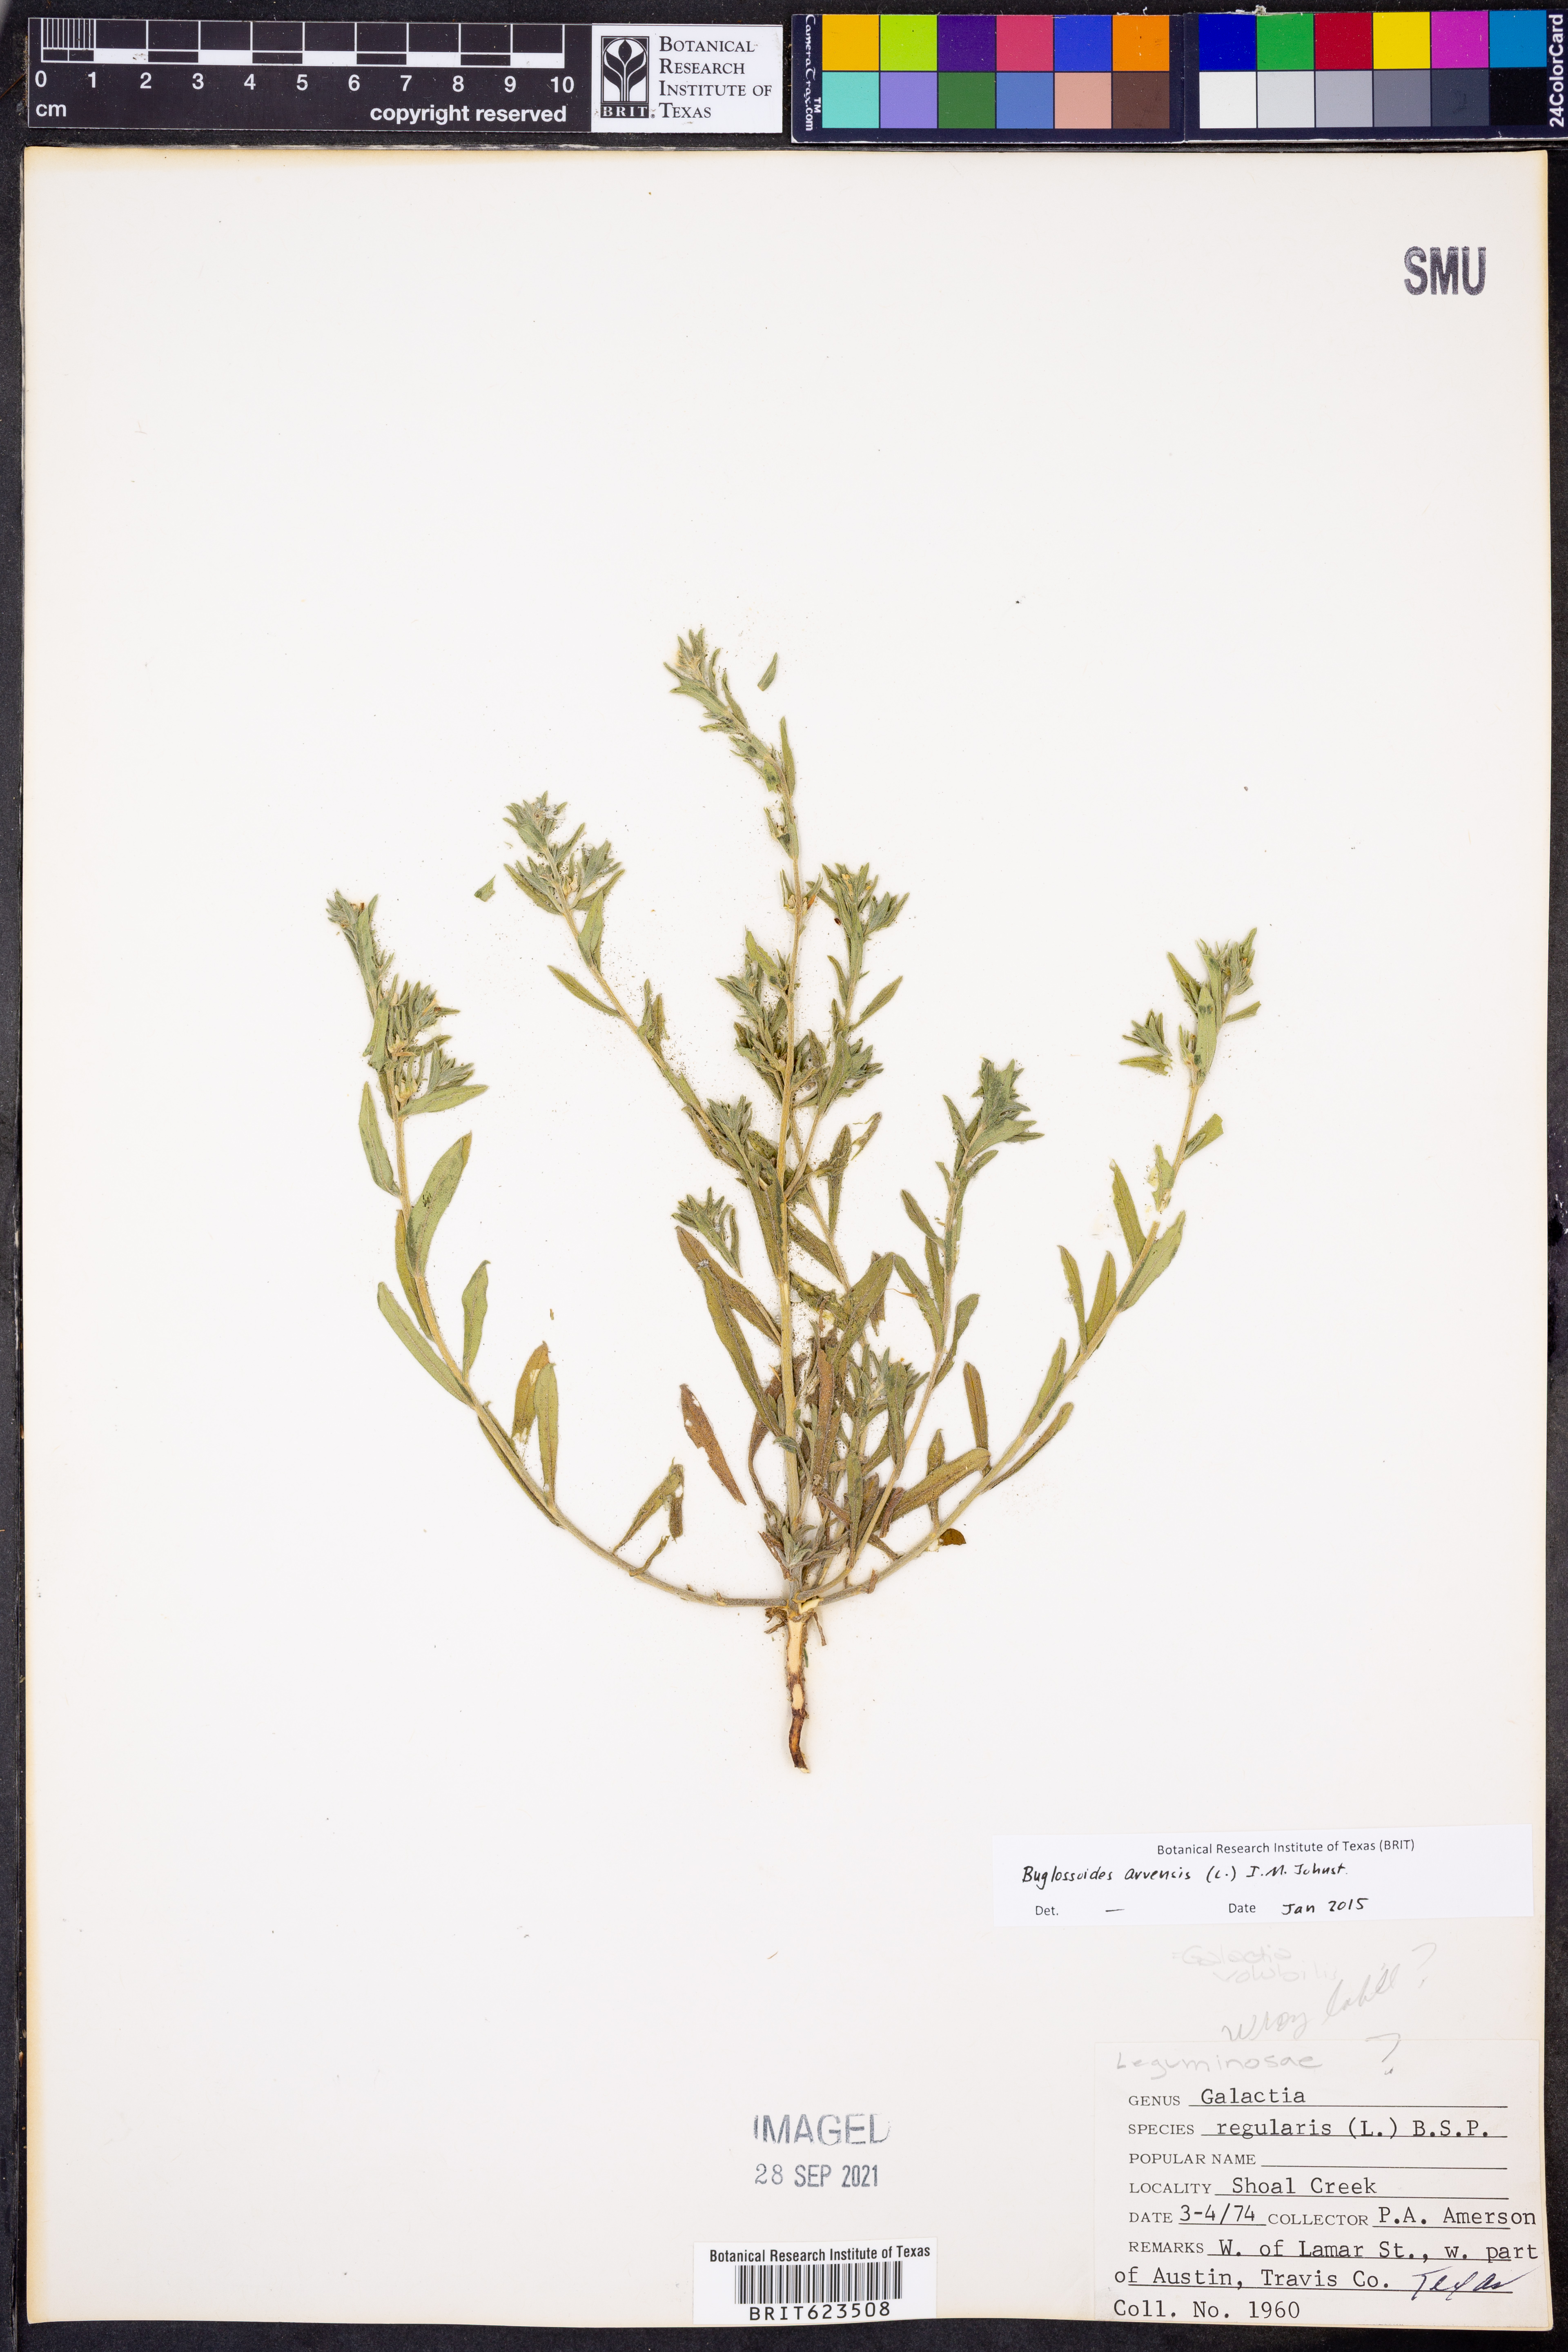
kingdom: Plantae
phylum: Tracheophyta
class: Magnoliopsida
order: Boraginales
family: Boraginaceae
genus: Buglossoides
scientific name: Buglossoides arvensis
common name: Corn gromwell
